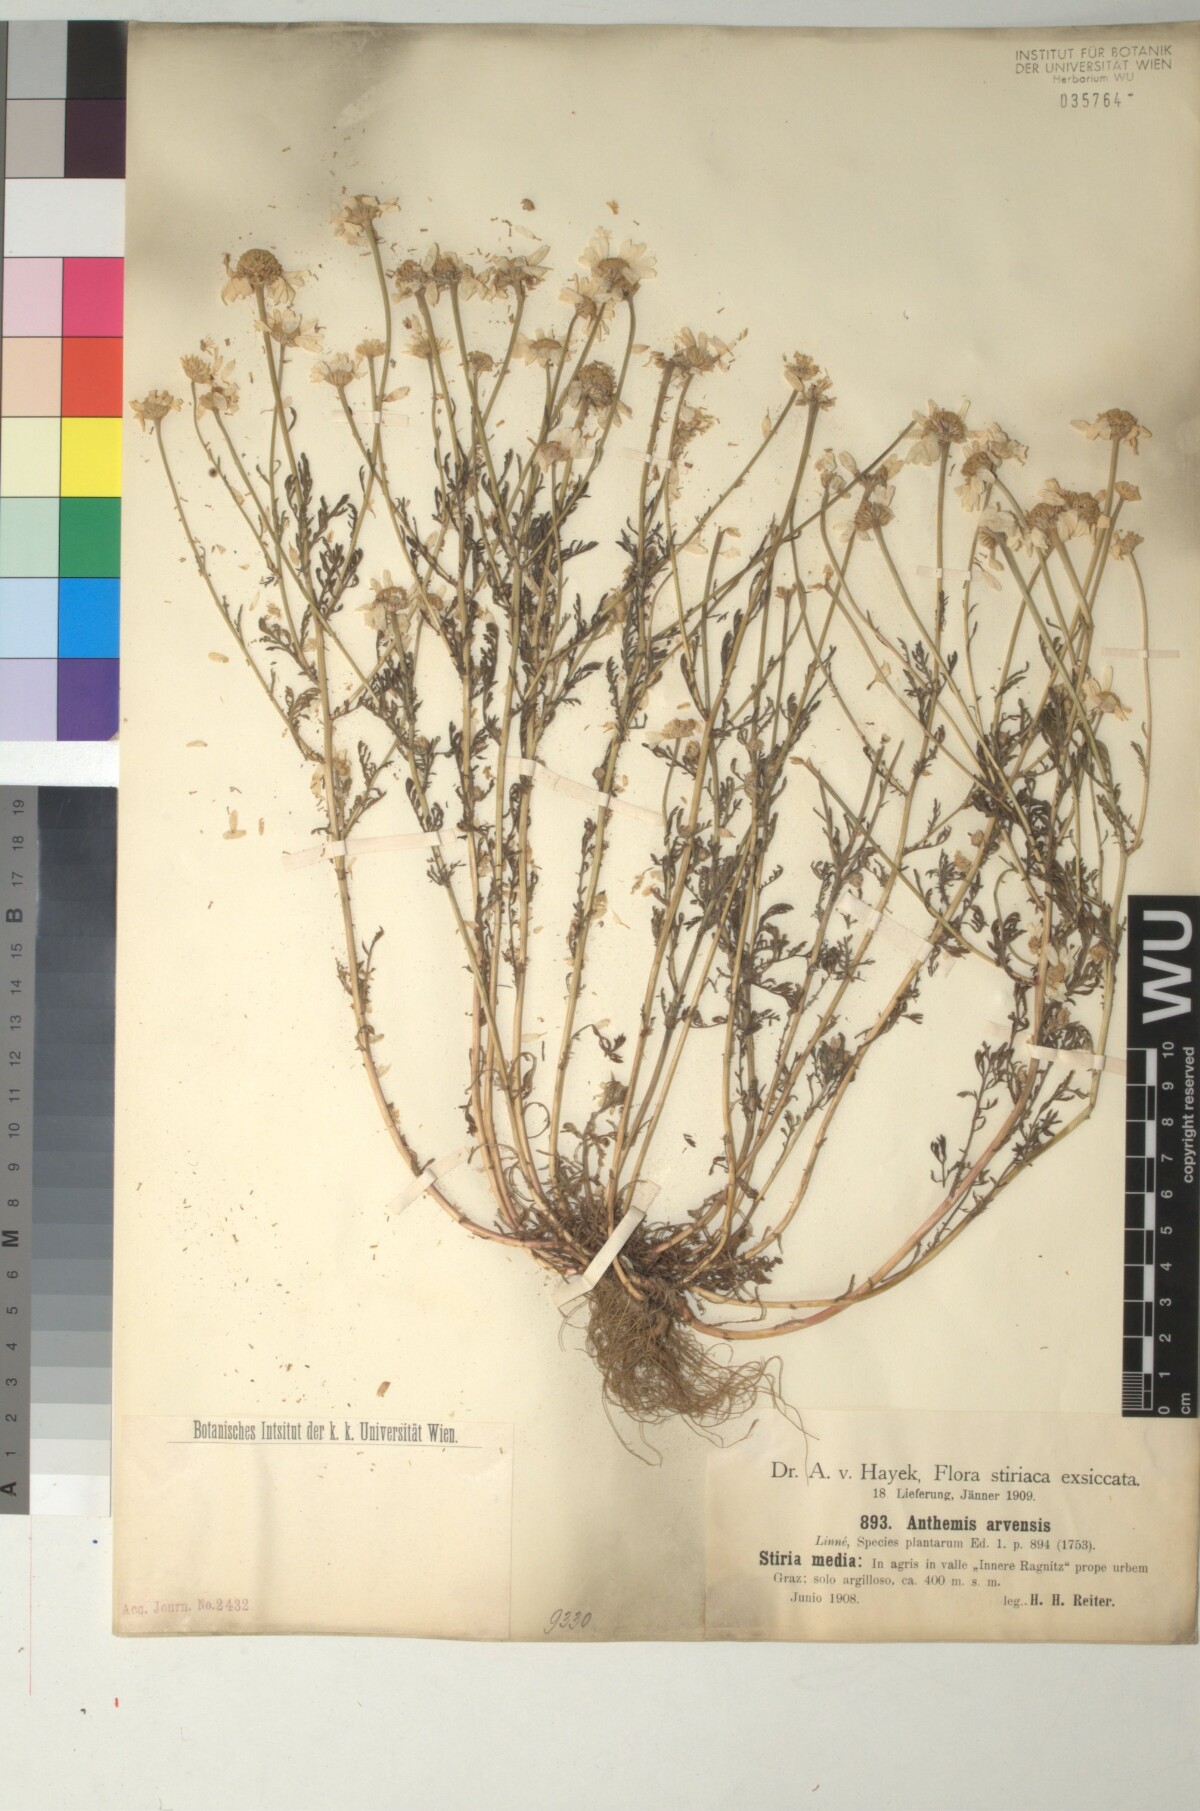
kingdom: Plantae
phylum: Tracheophyta
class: Magnoliopsida
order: Asterales
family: Asteraceae
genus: Anthemis
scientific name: Anthemis arvensis
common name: Corn chamomile
